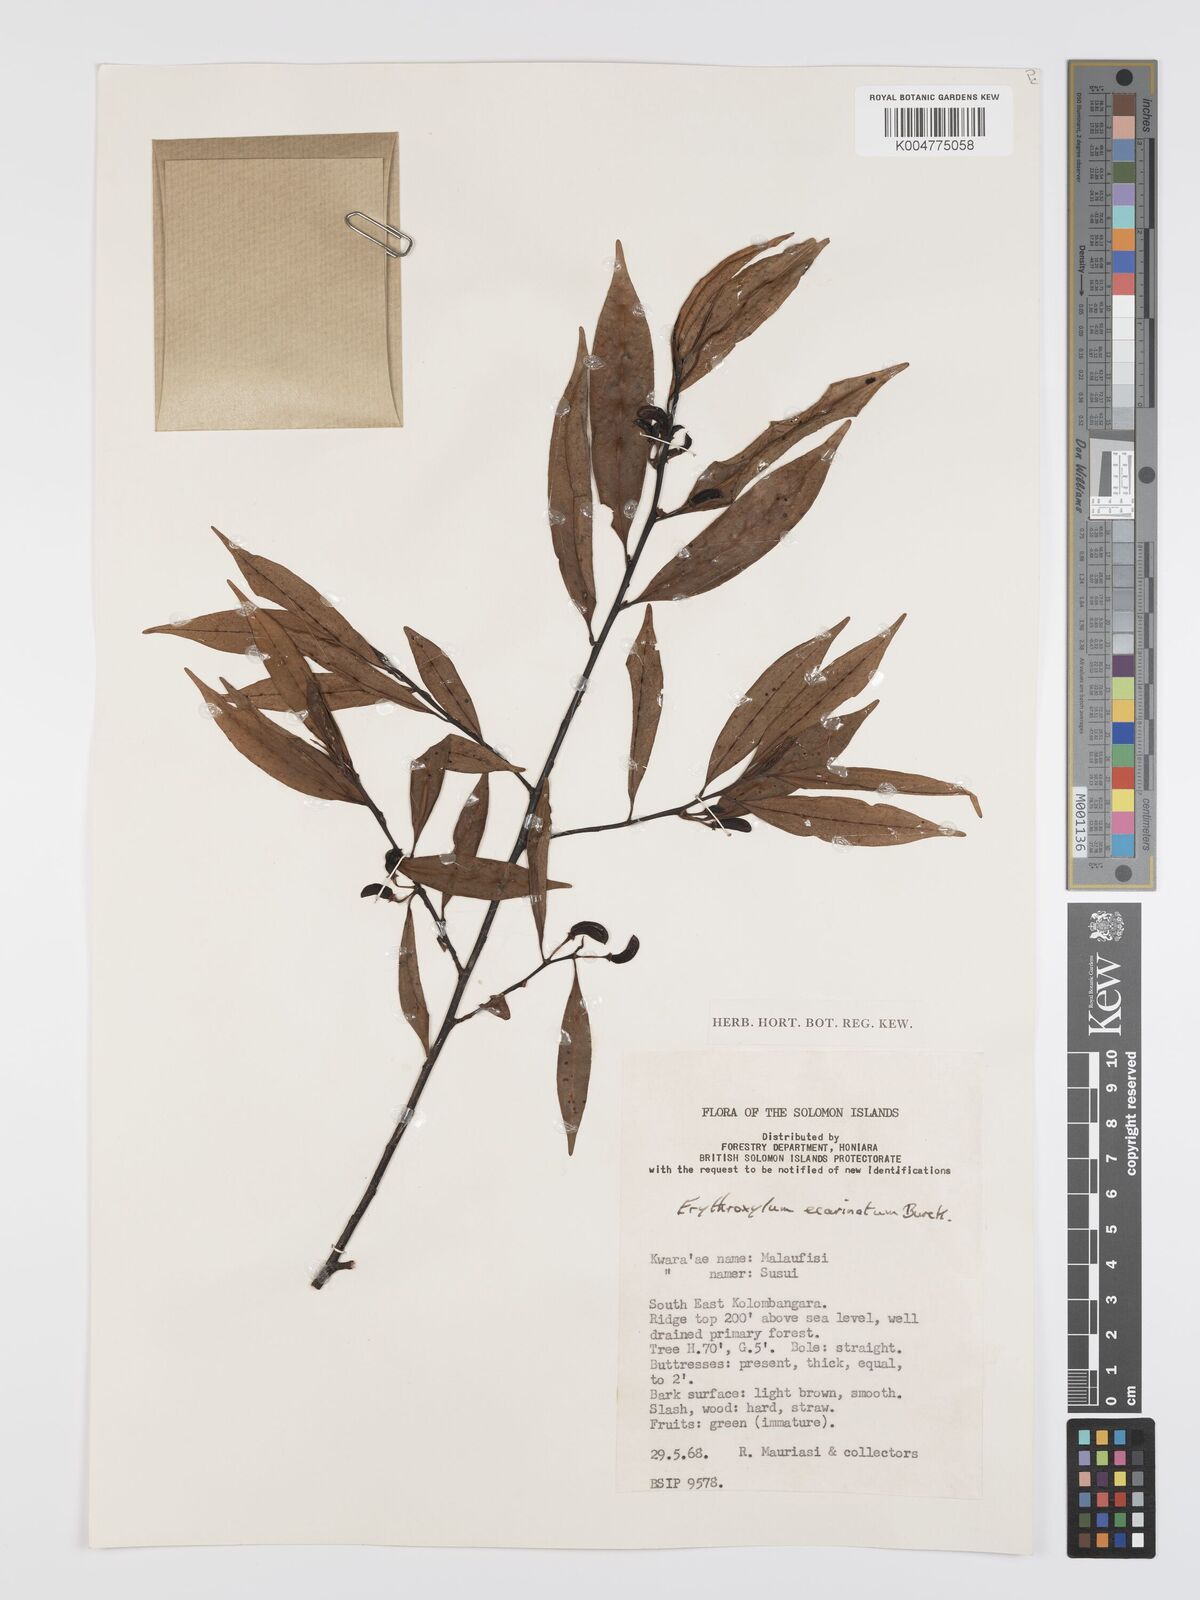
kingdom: Plantae
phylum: Tracheophyta
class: Magnoliopsida
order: Malpighiales
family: Erythroxylaceae
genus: Erythroxylum
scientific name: Erythroxylum ecarinatum
